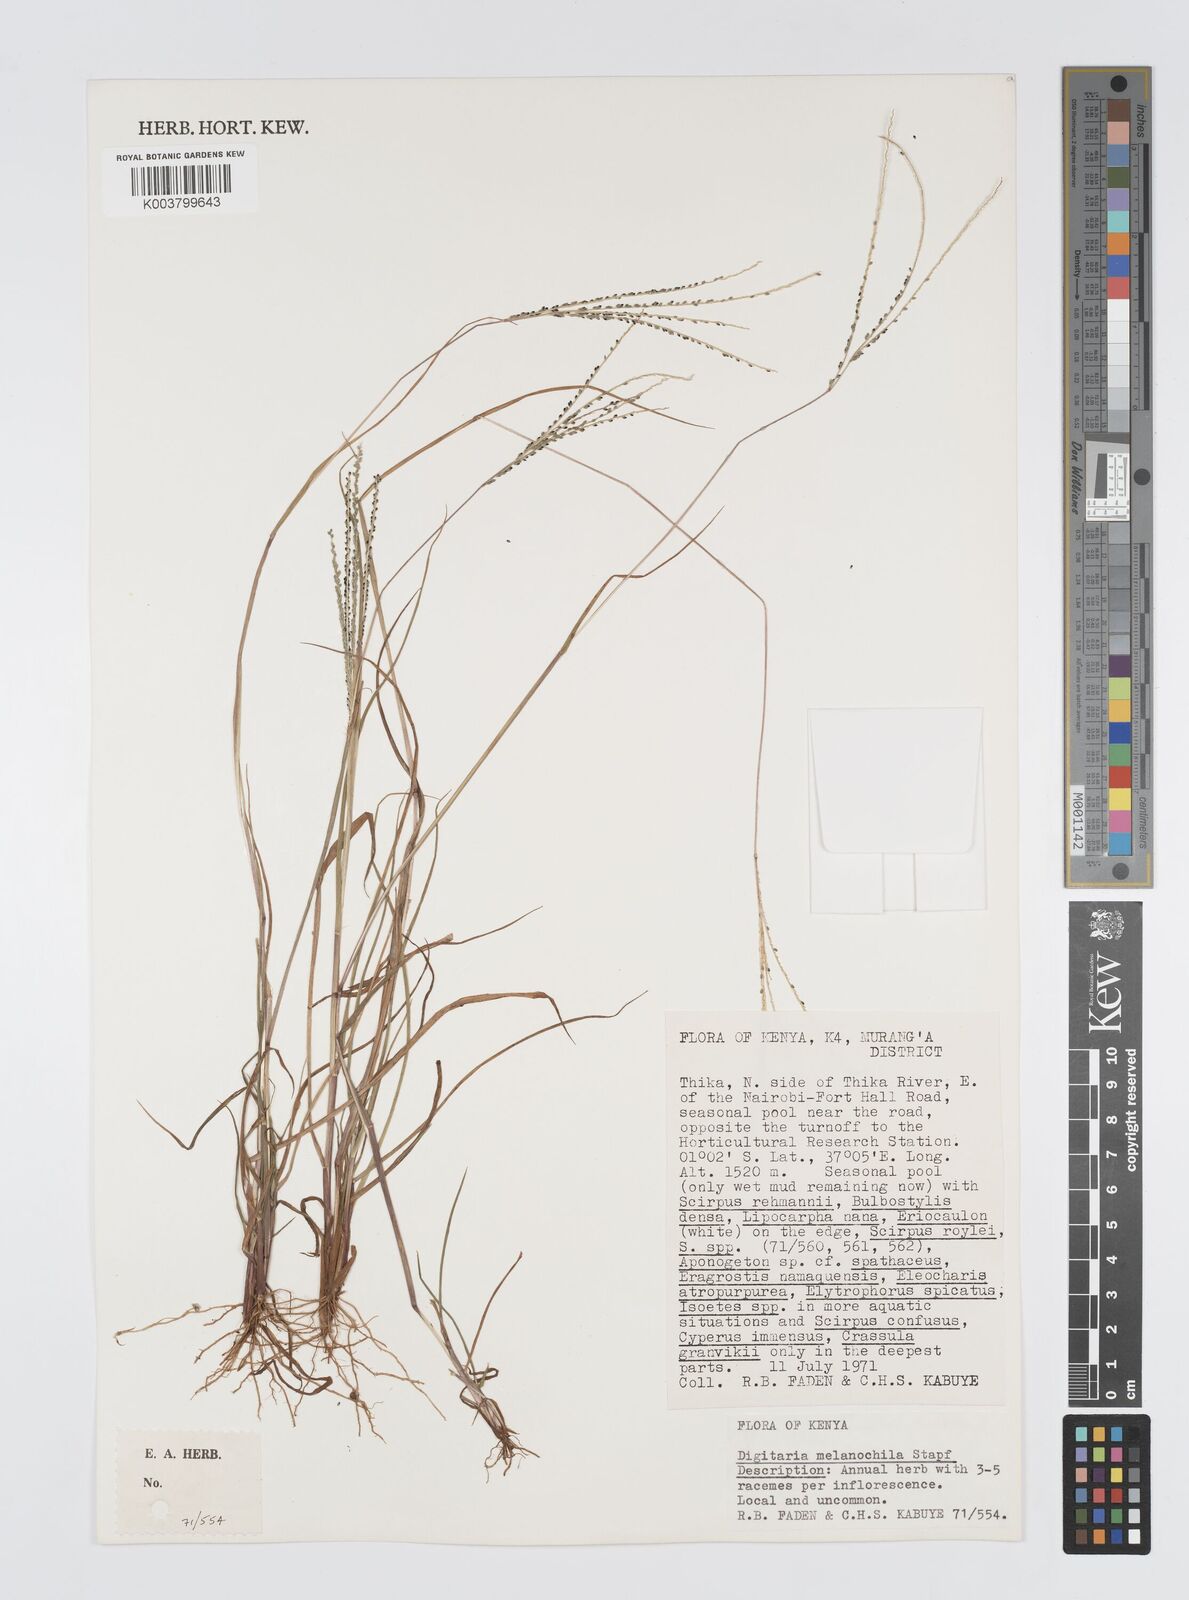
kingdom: Plantae
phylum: Tracheophyta
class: Liliopsida
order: Poales
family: Poaceae
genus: Digitaria
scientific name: Digitaria thouarsiana
